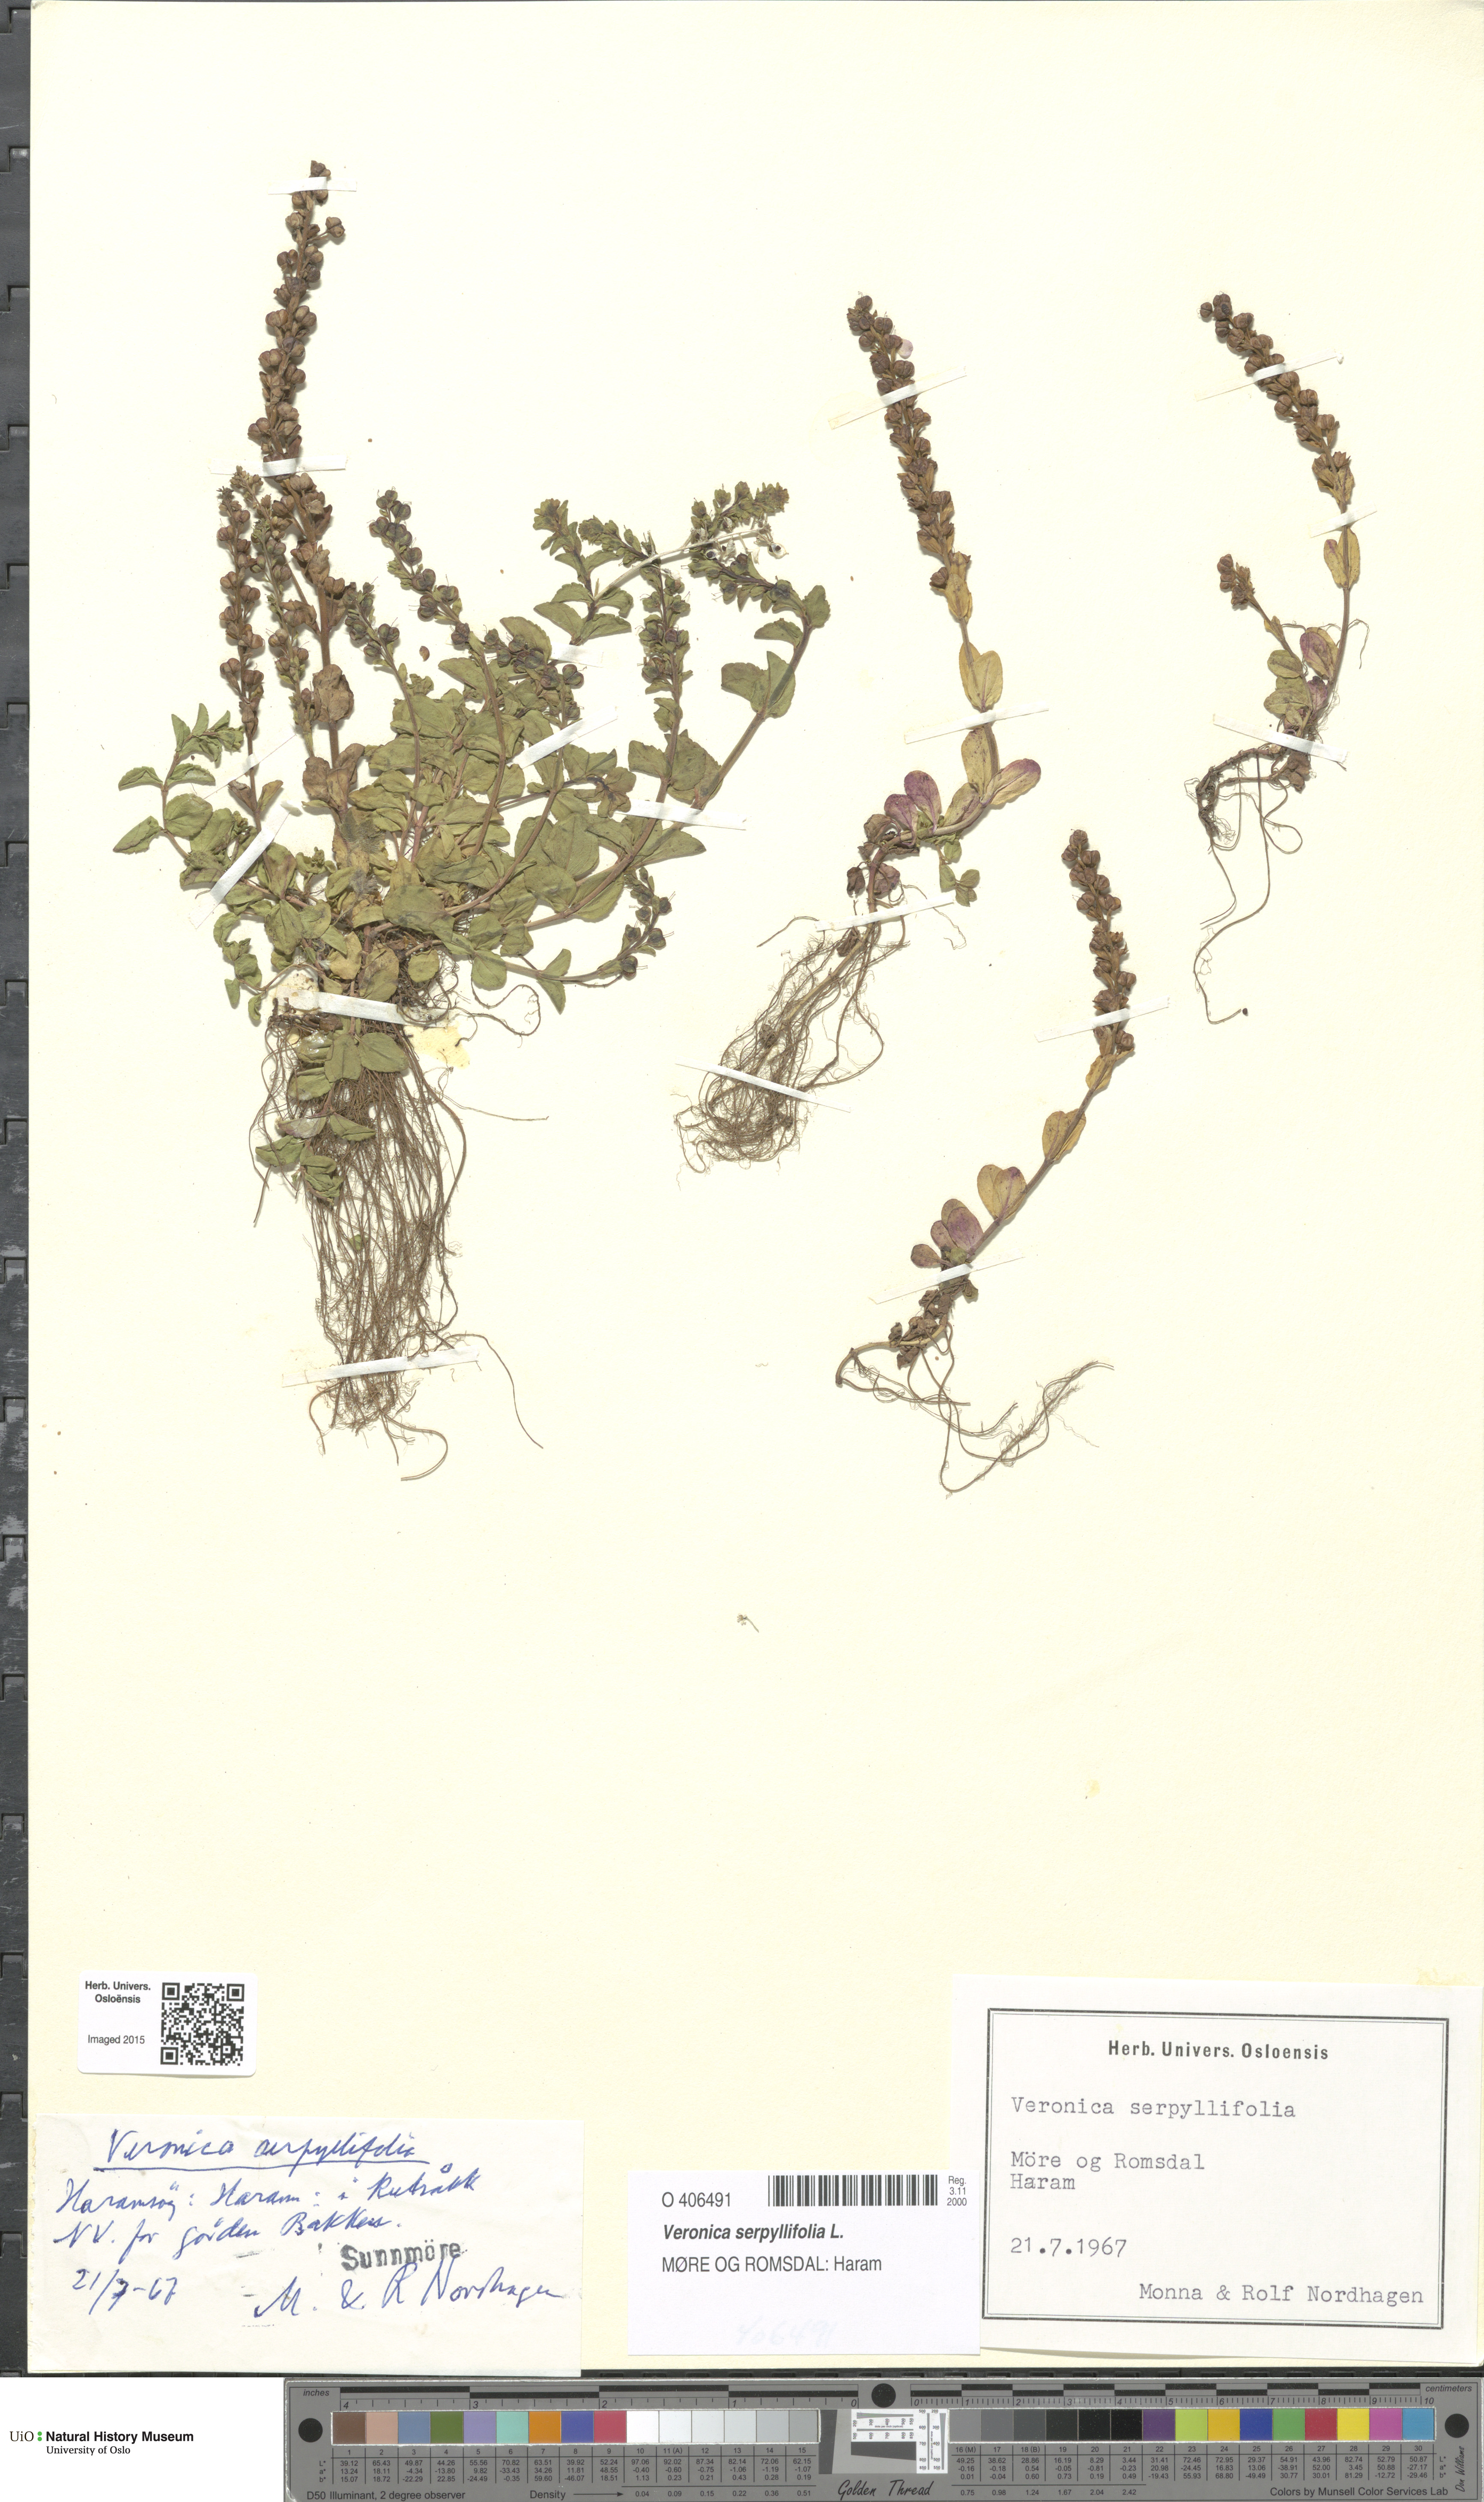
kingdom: Plantae
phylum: Tracheophyta
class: Magnoliopsida
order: Lamiales
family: Plantaginaceae
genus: Veronica
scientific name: Veronica serpyllifolia
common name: Thyme-leaved speedwell
